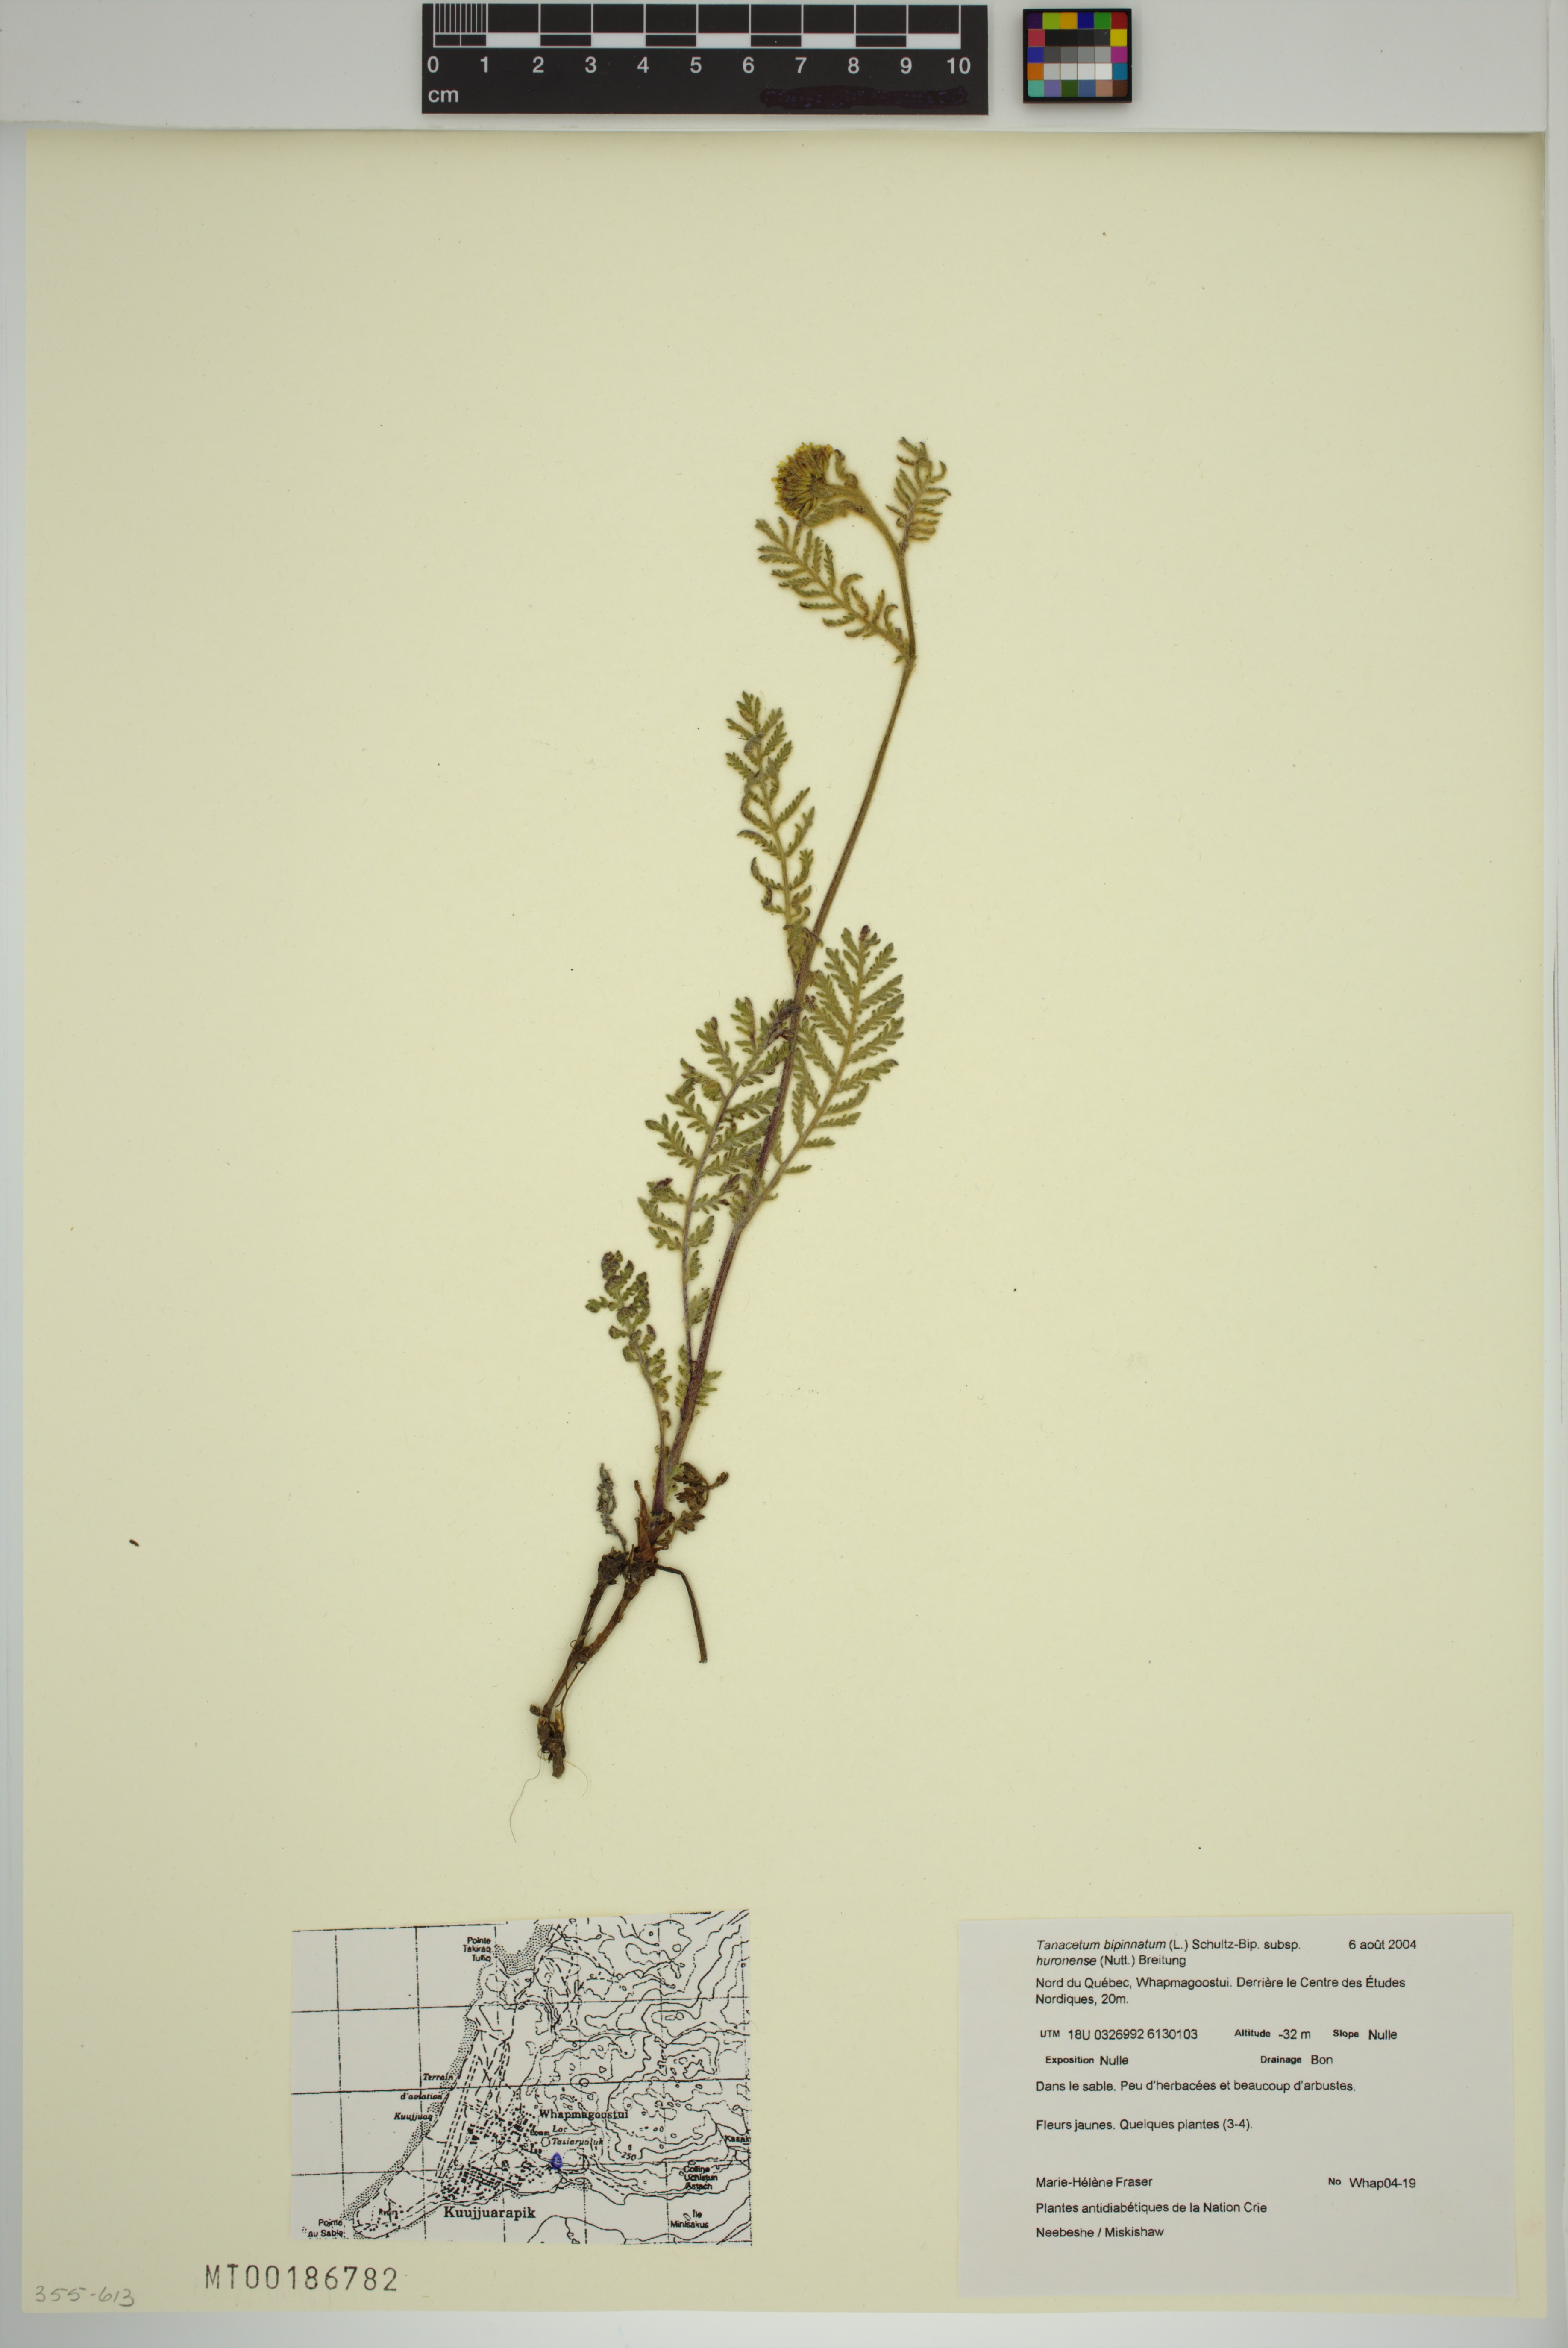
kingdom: Plantae
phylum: Tracheophyta
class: Magnoliopsida
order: Asterales
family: Asteraceae
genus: Tanacetum
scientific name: Tanacetum bipinnatum
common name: Dwarf tansy
